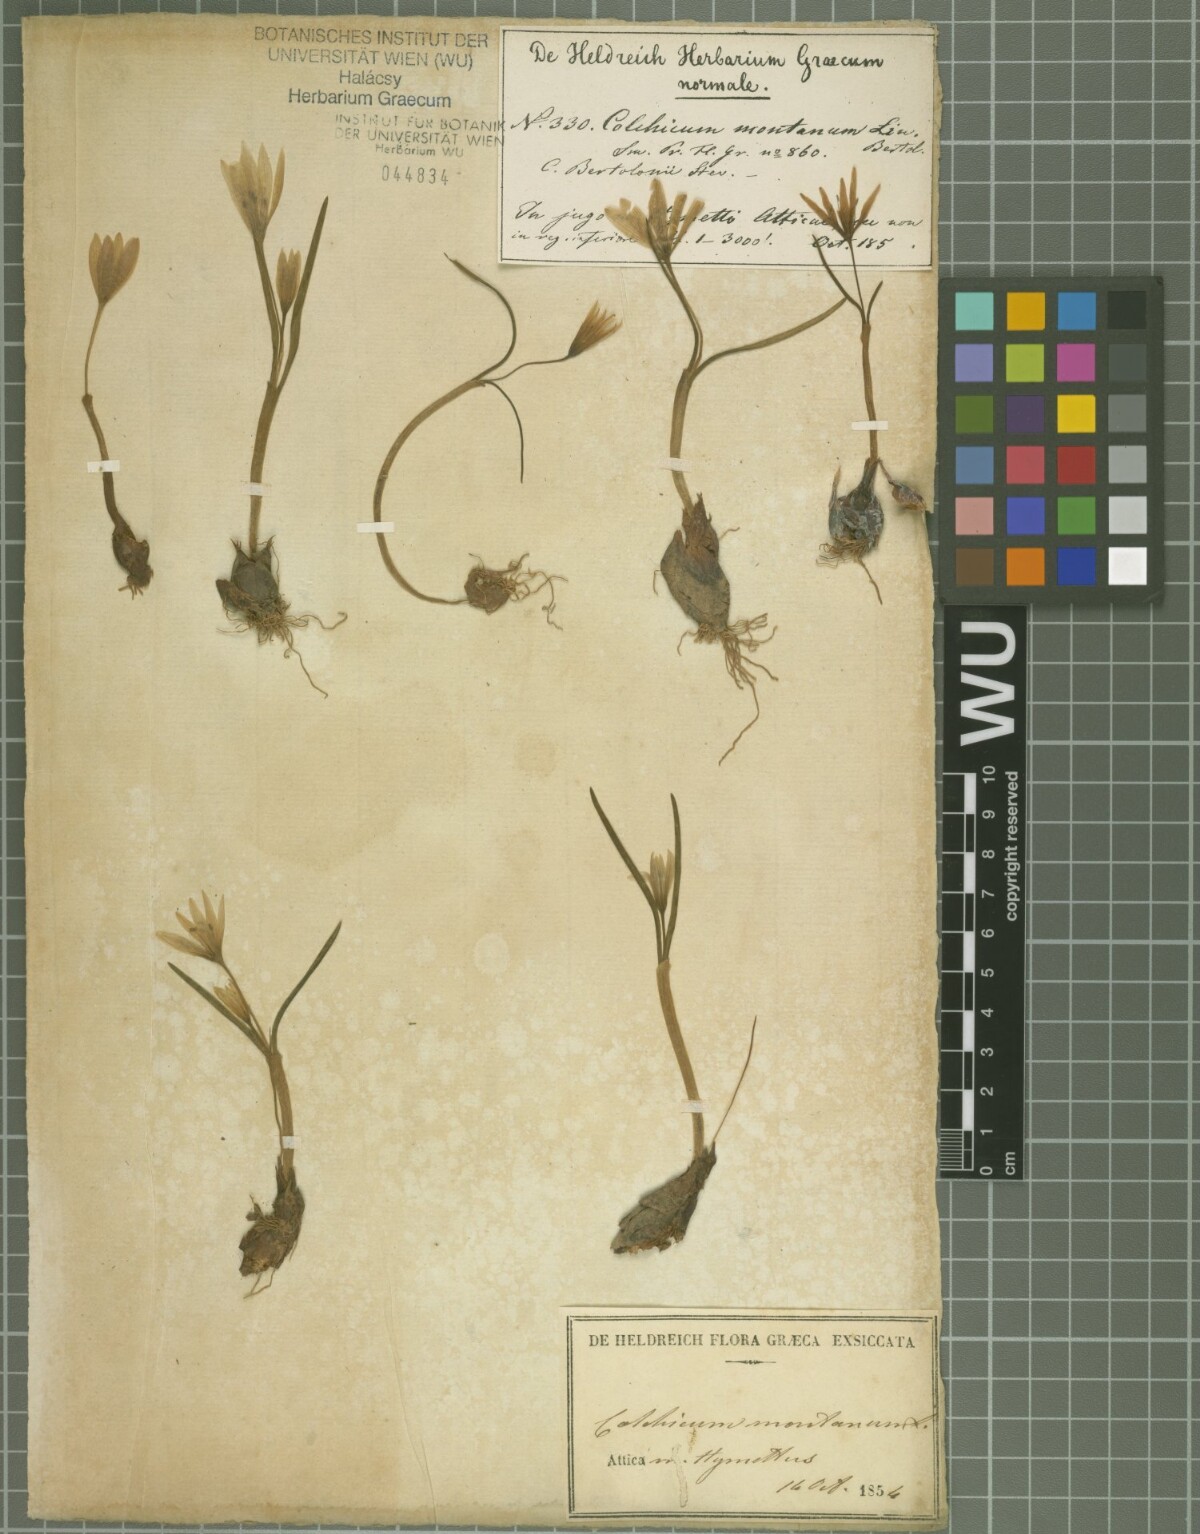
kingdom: Plantae
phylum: Tracheophyta
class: Liliopsida
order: Liliales
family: Colchicaceae
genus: Colchicum
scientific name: Colchicum cupanii
